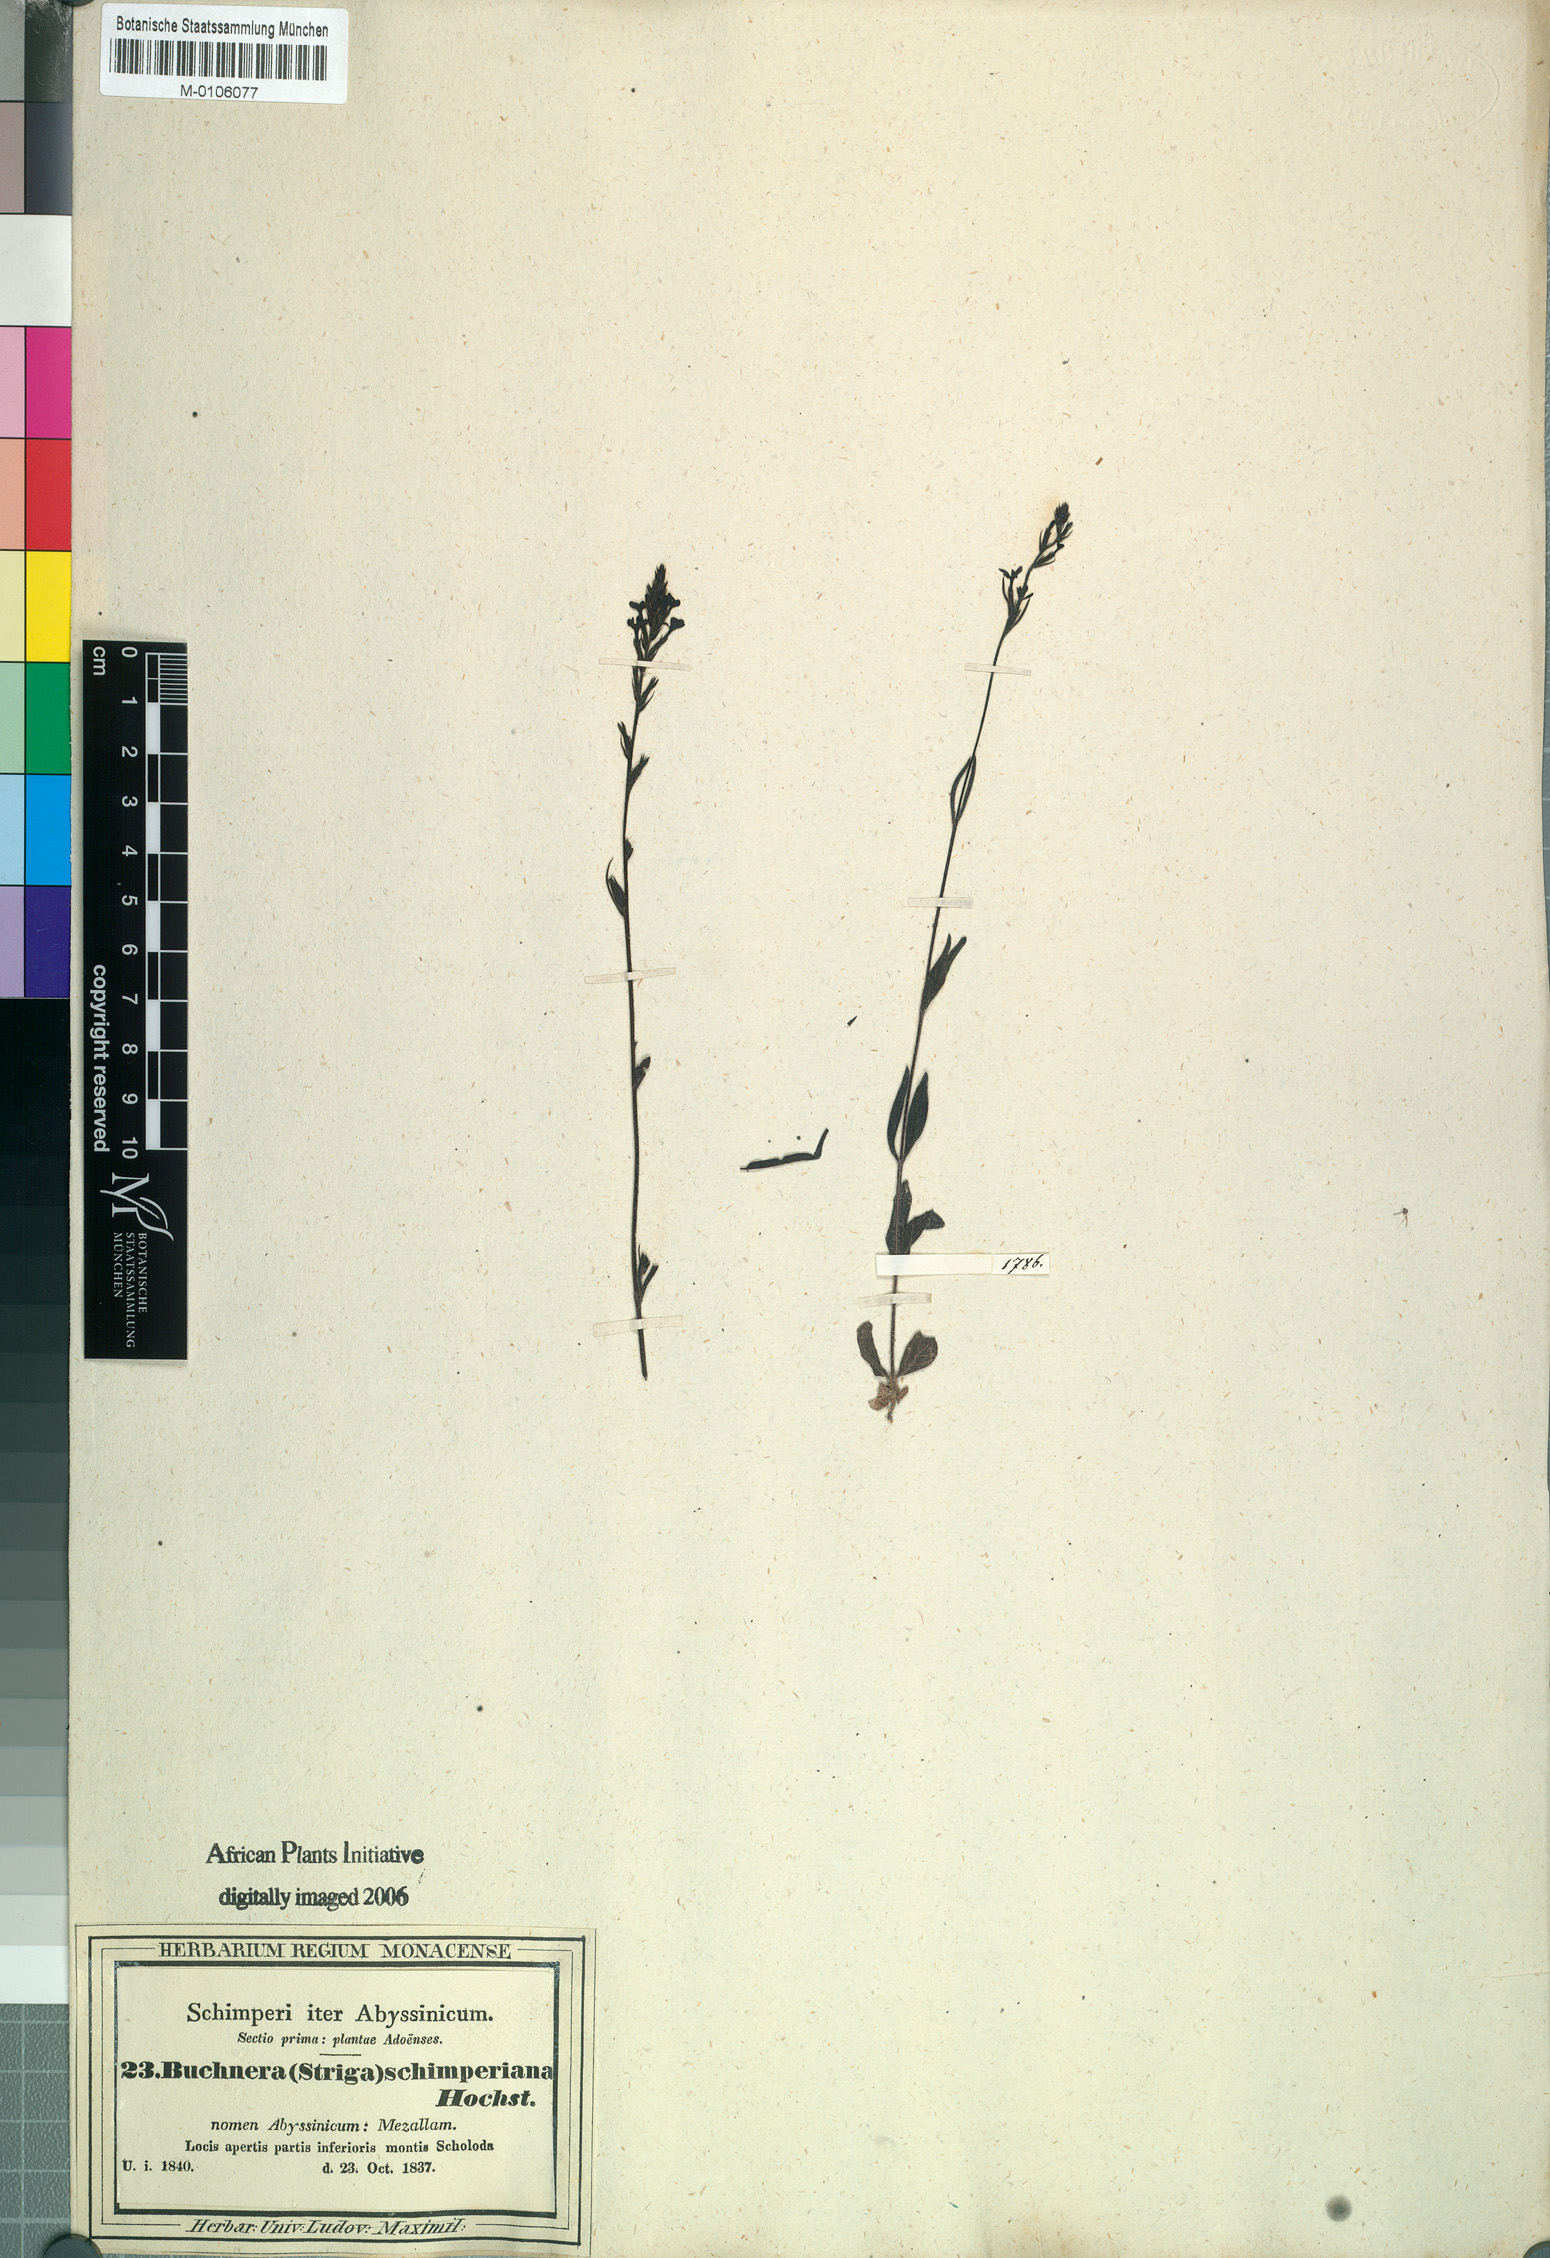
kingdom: Plantae
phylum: Tracheophyta
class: Magnoliopsida
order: Lamiales
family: Orobanchaceae
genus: Buchnera
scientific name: Buchnera hispida
